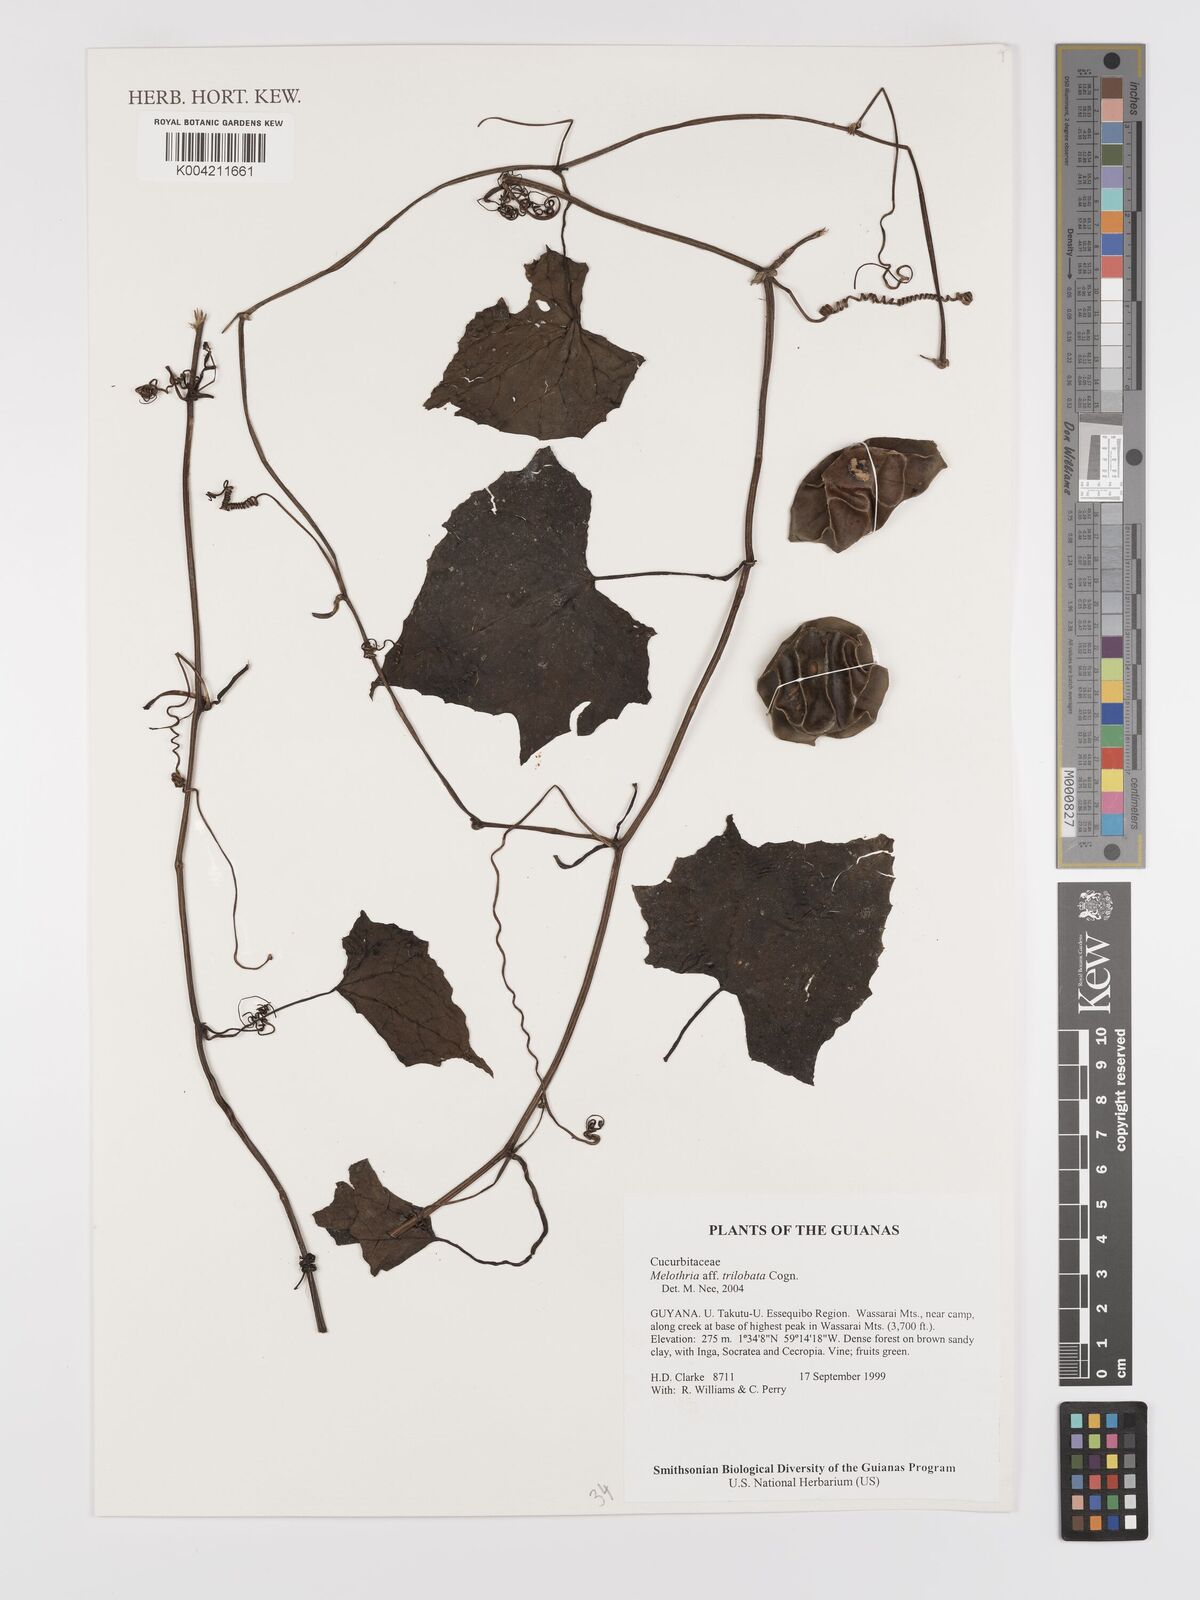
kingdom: Plantae
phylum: Tracheophyta
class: Magnoliopsida
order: Cucurbitales
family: Cucurbitaceae
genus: Melothria
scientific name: Melothria trilobata
